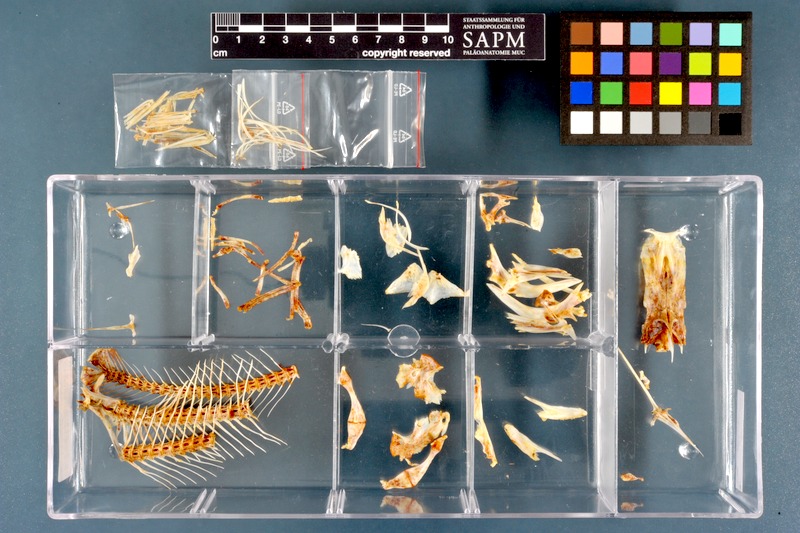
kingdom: Animalia
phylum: Chordata
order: Siluriformes
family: Schilbeidae
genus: Schilbe
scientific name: Schilbe uranoscopus
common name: Egyptian butter catfish
